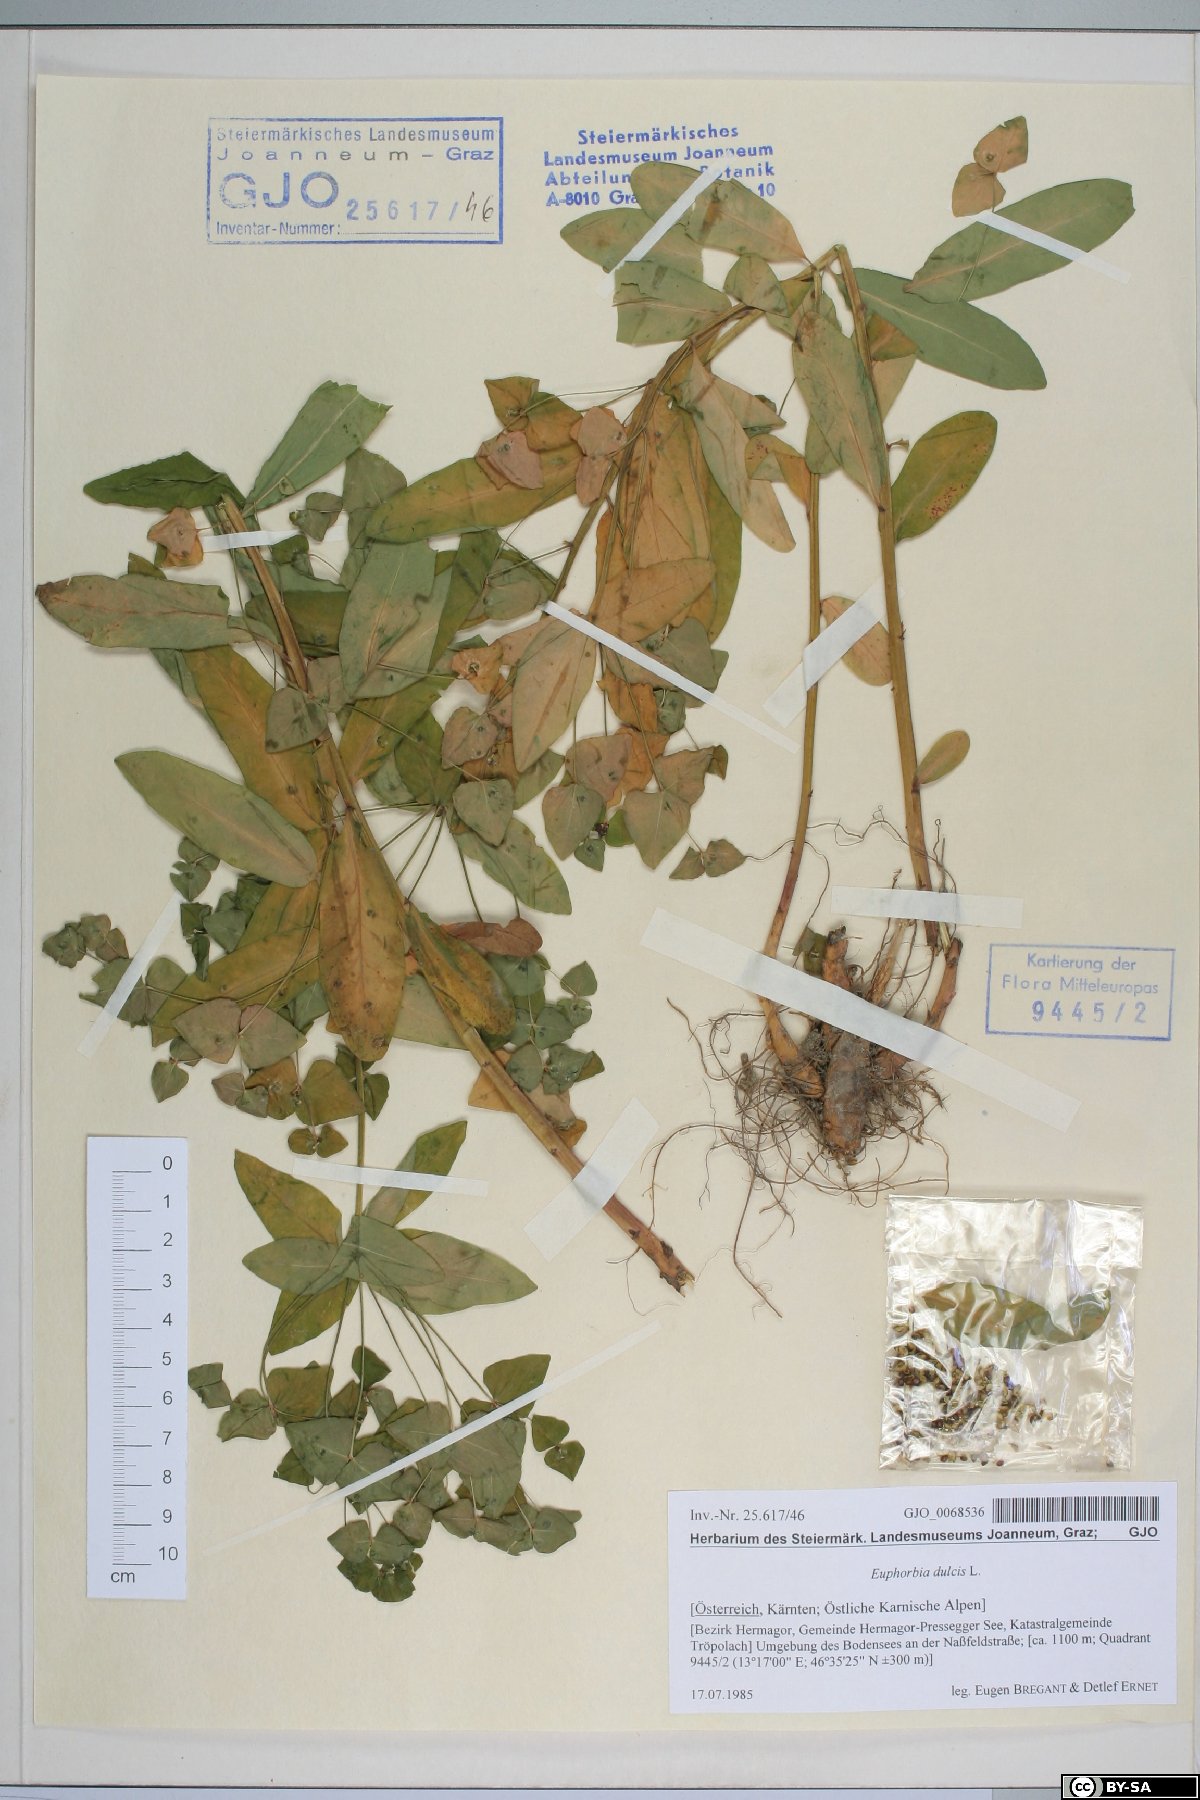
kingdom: Plantae
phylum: Tracheophyta
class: Magnoliopsida
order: Malpighiales
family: Euphorbiaceae
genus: Euphorbia
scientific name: Euphorbia dulcis
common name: Sweet spurge
